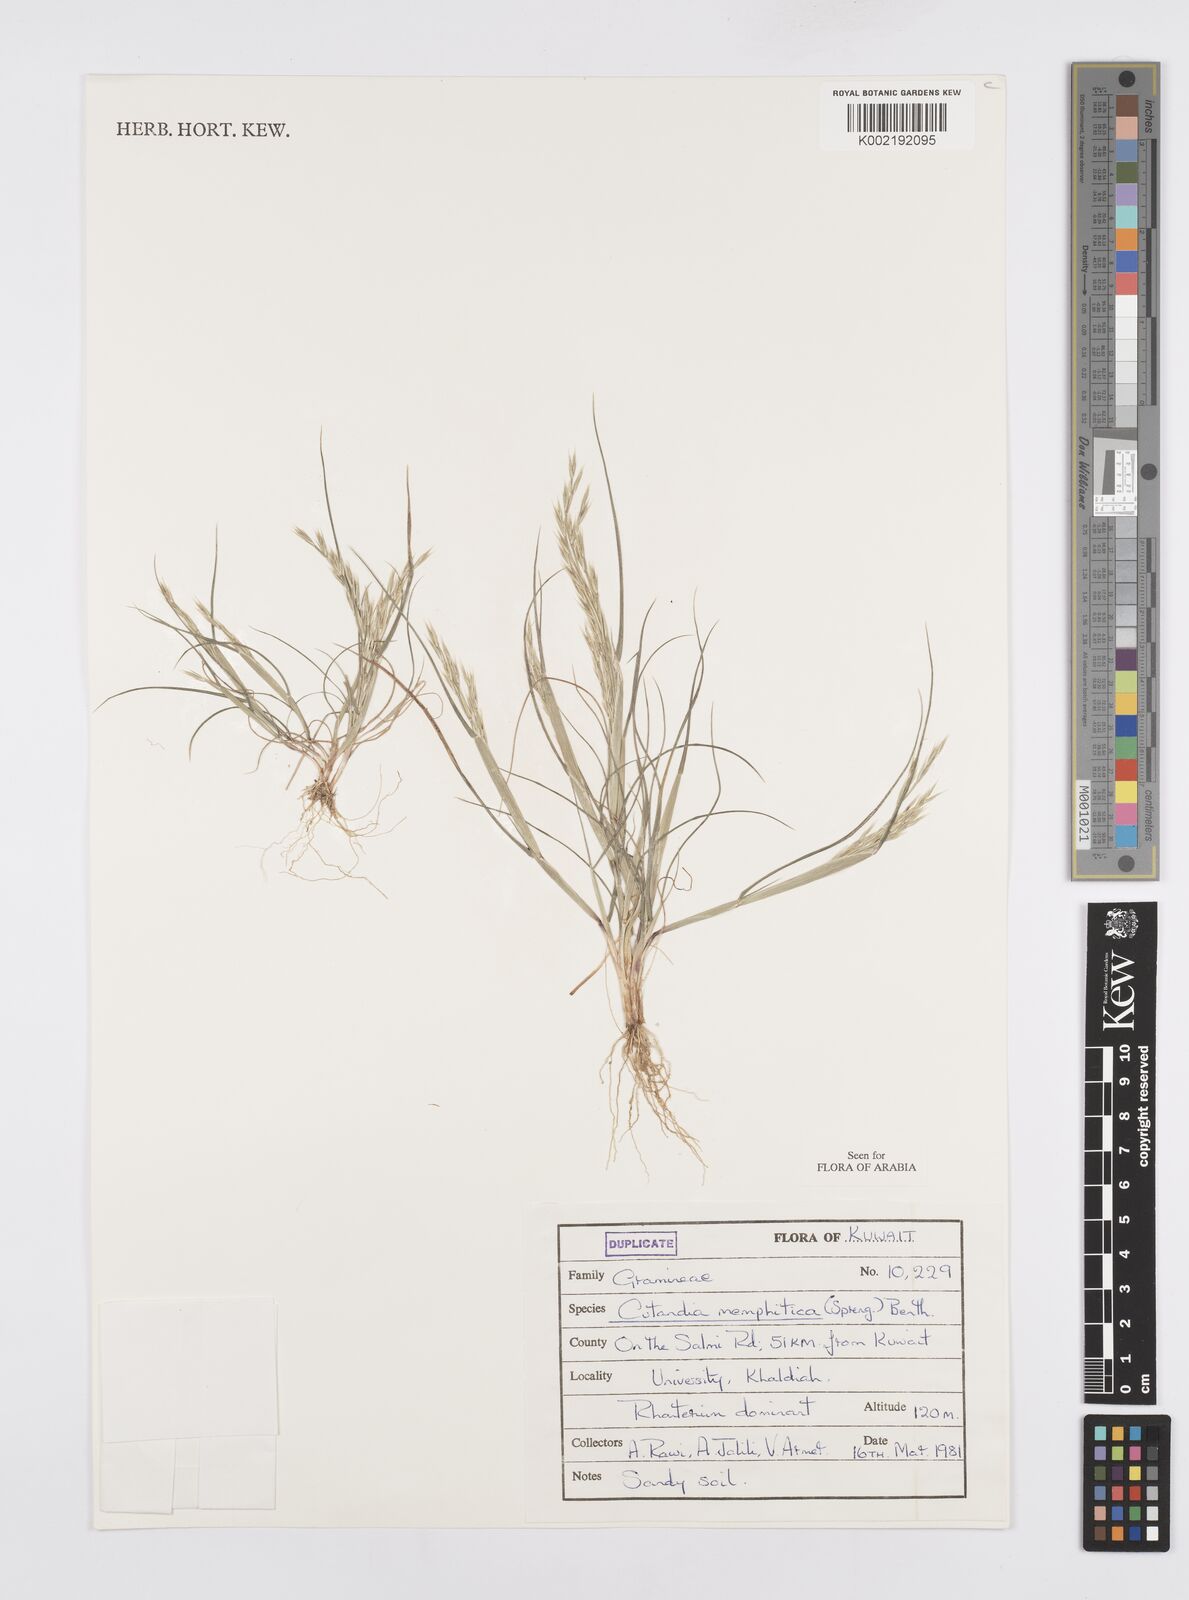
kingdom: Plantae
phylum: Tracheophyta
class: Liliopsida
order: Poales
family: Poaceae
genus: Cutandia
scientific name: Cutandia memphitica
